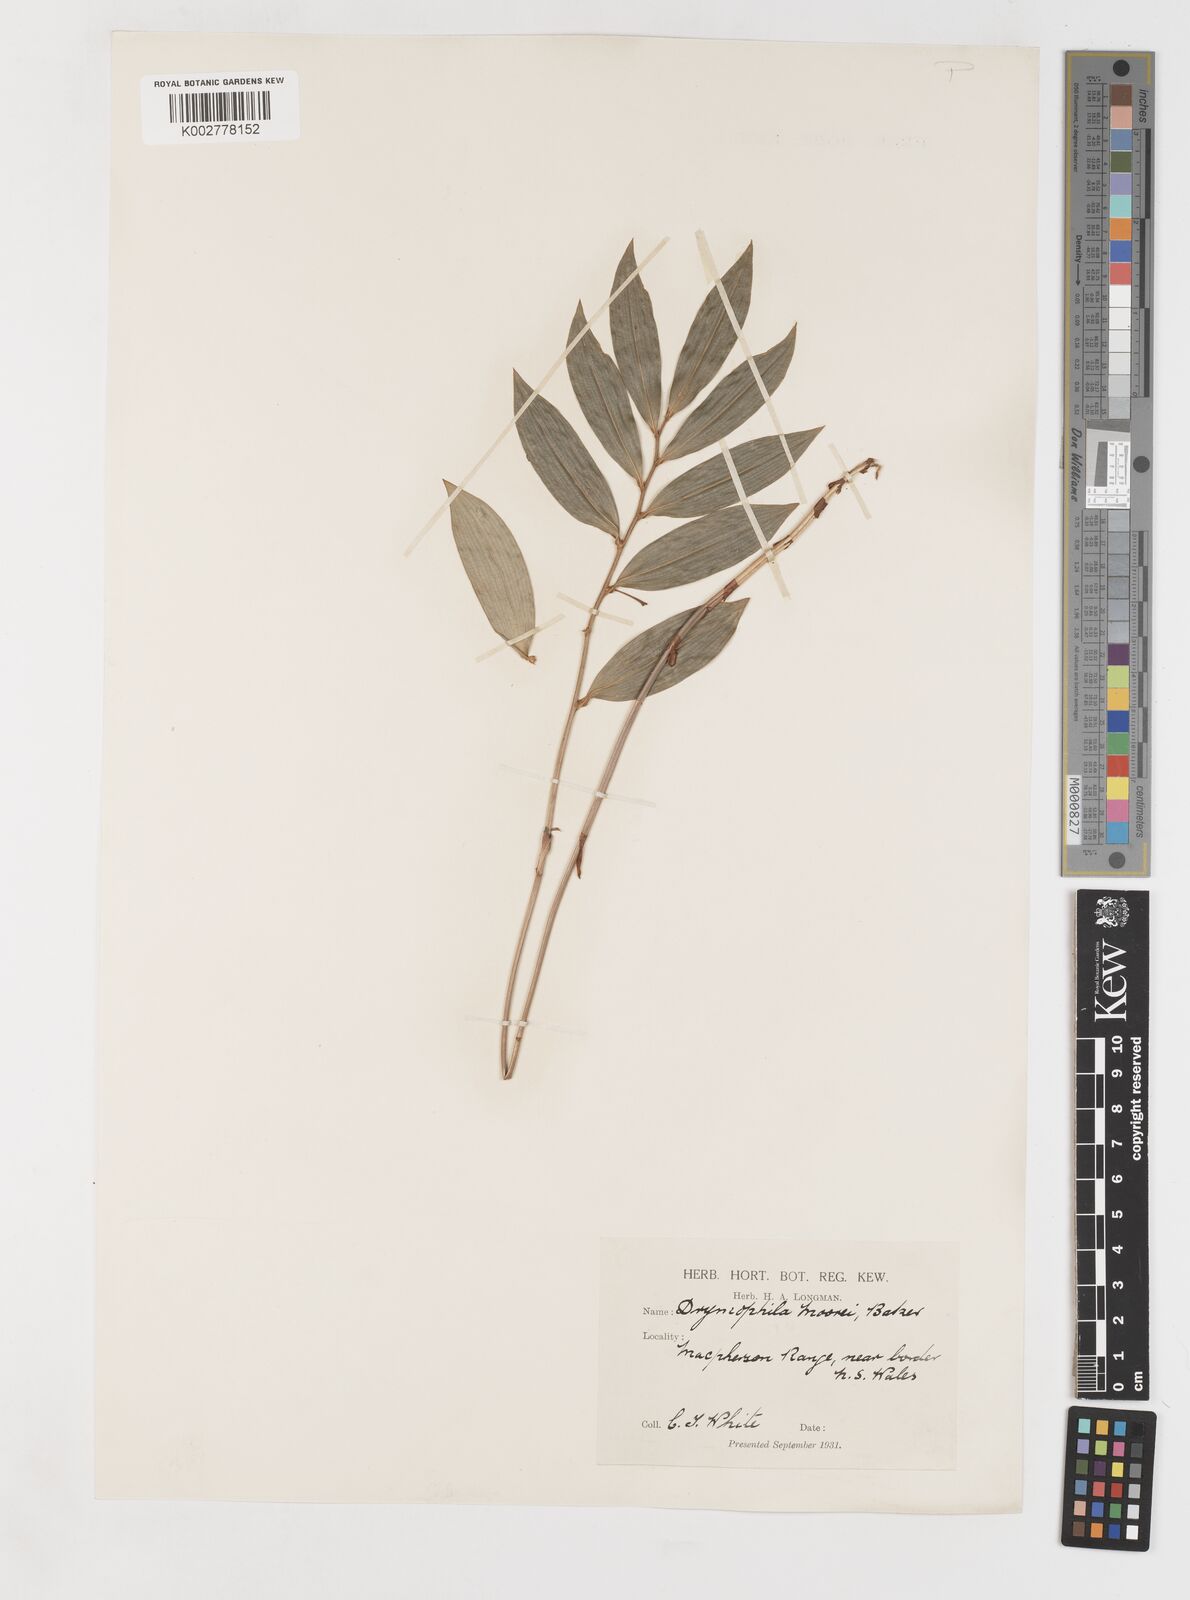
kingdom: Plantae
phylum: Tracheophyta
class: Liliopsida
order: Liliales
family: Alstroemeriaceae
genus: Drymophila
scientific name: Drymophila moorei
